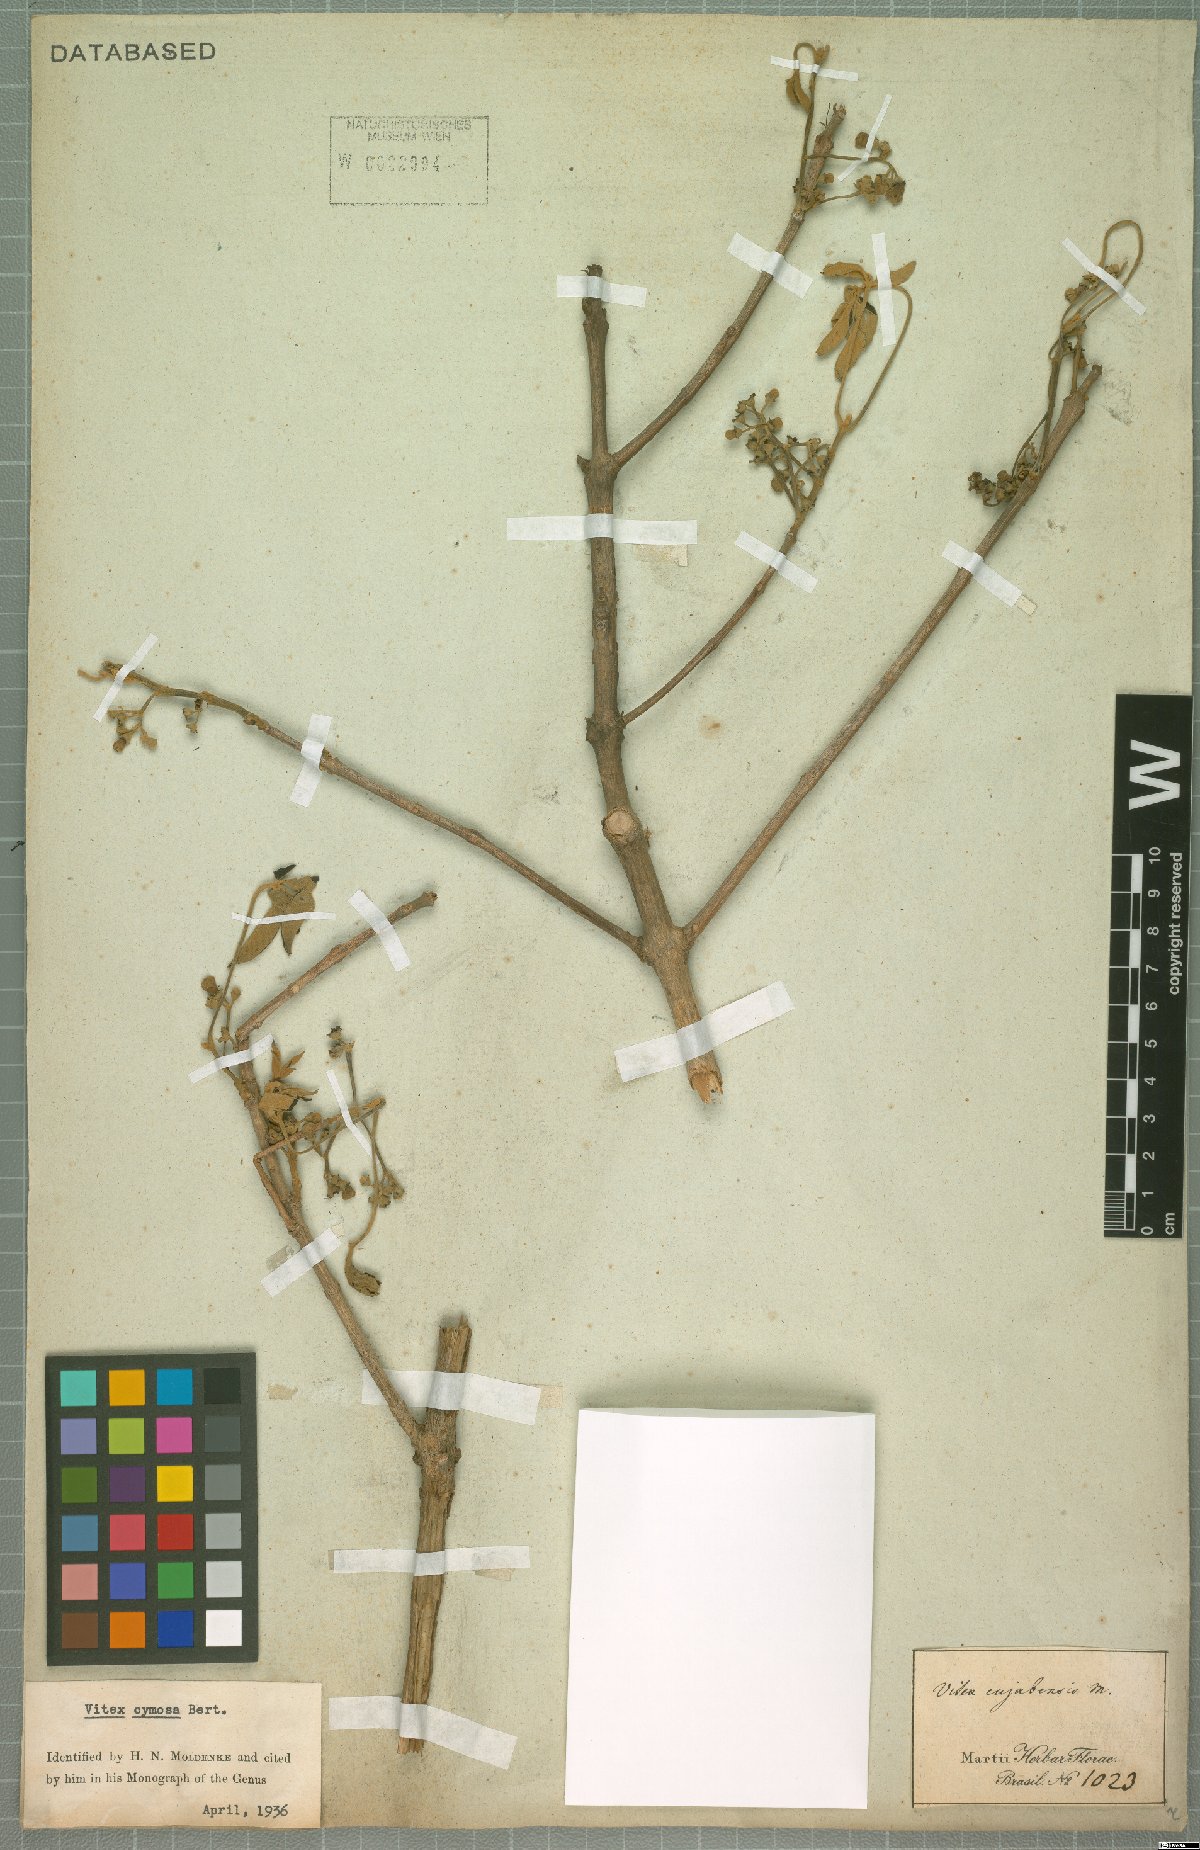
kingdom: Plantae
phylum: Tracheophyta
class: Magnoliopsida
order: Lamiales
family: Lamiaceae
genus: Vitex
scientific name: Vitex cymosa
